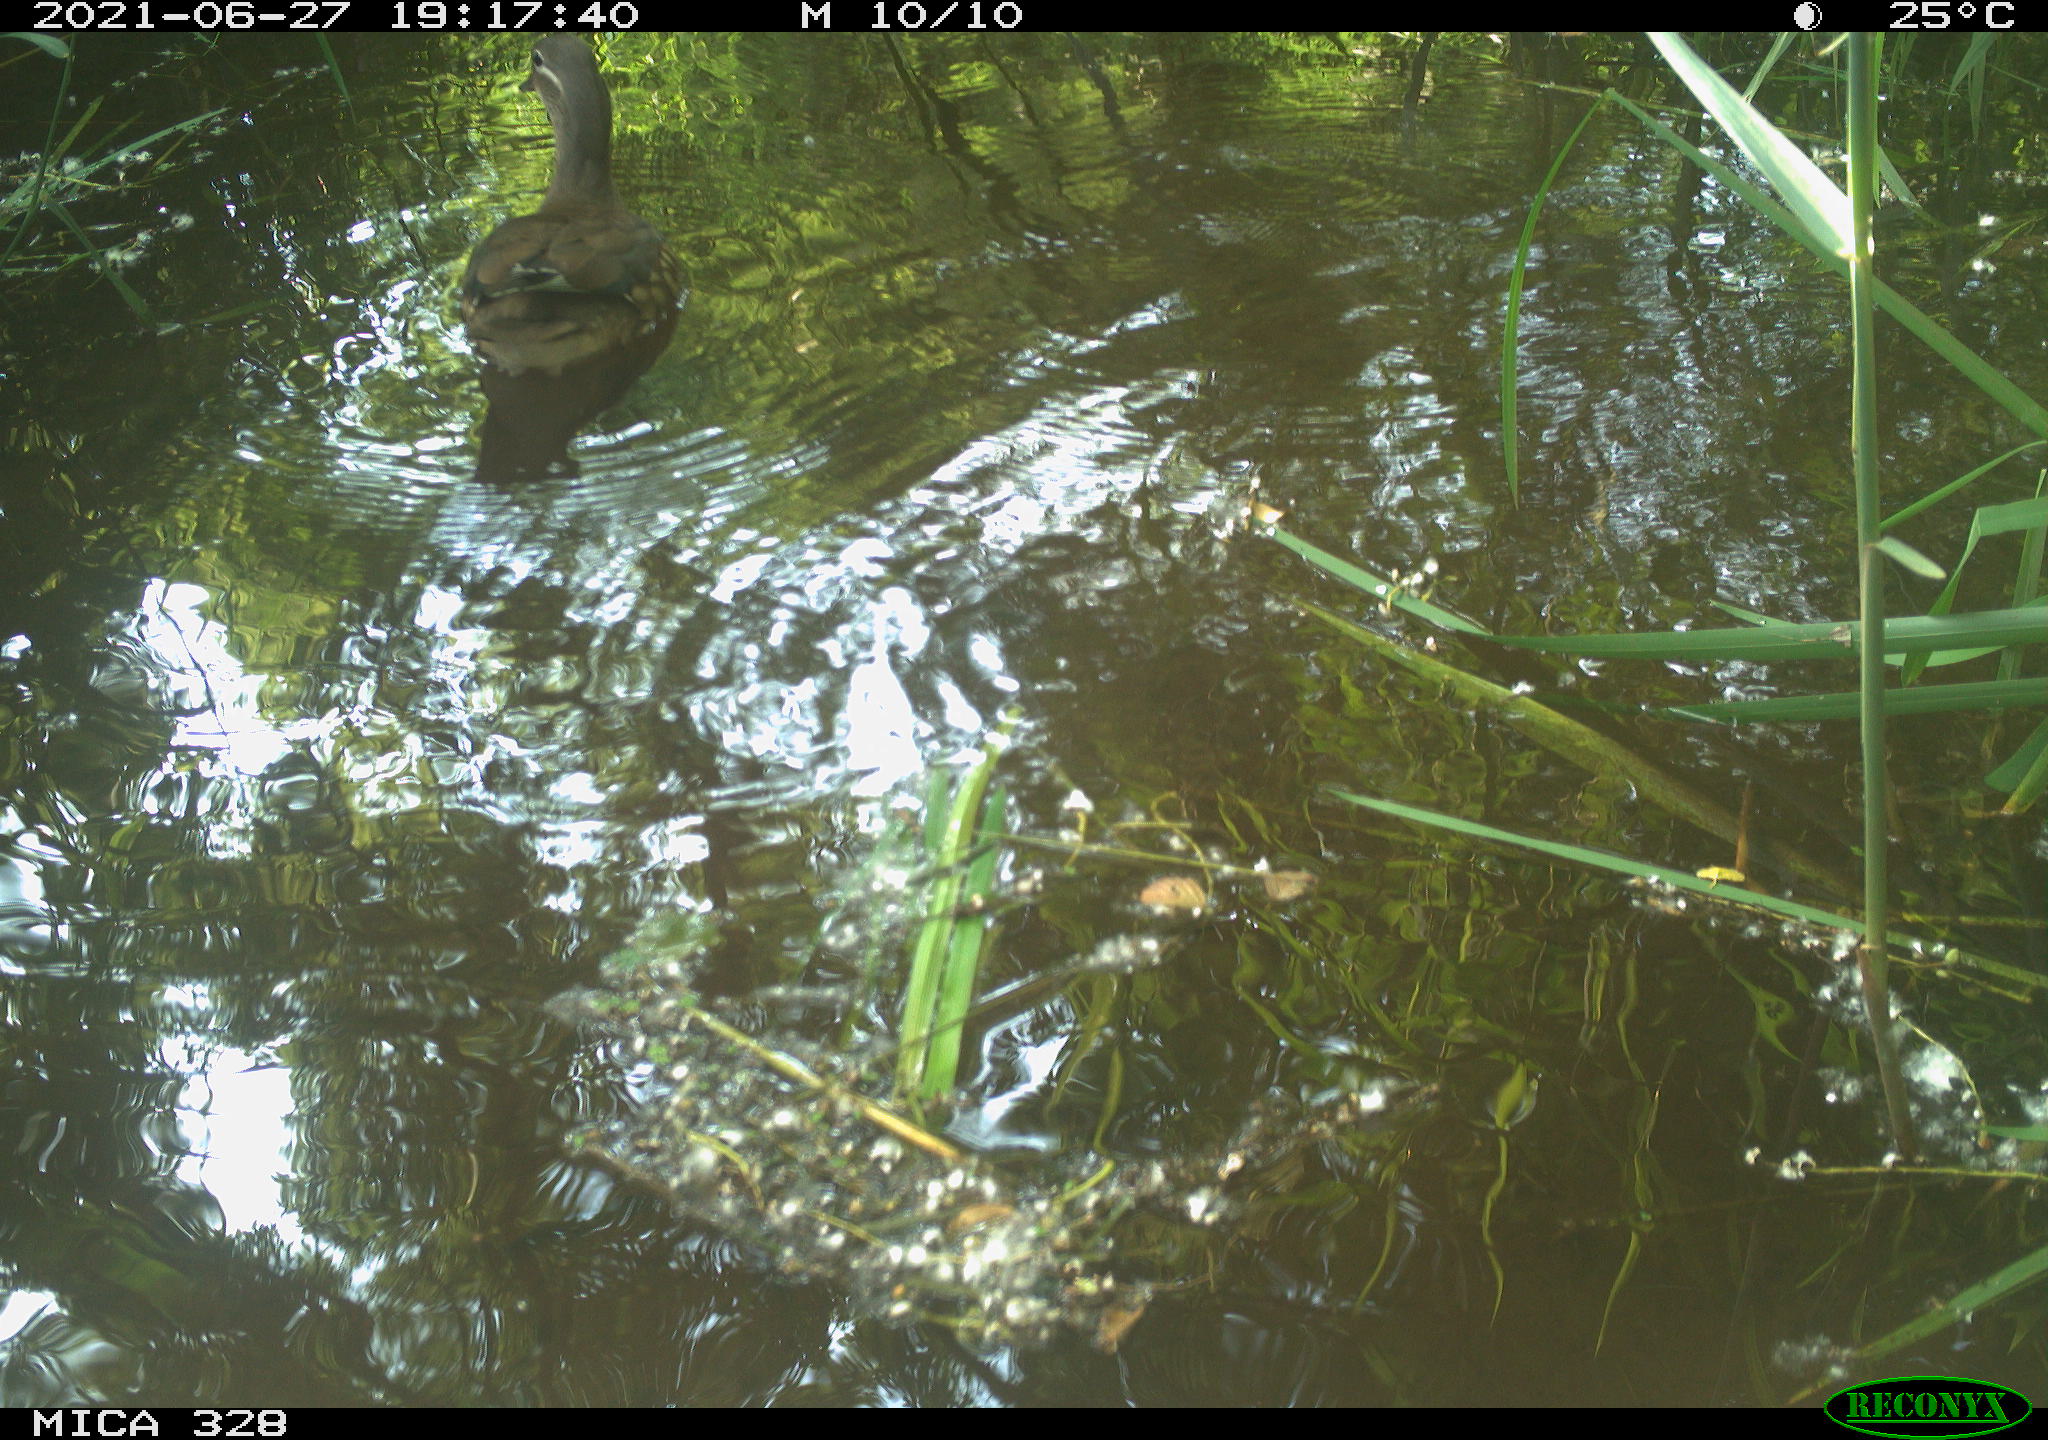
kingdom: Animalia
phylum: Chordata
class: Aves
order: Anseriformes
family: Anatidae
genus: Aix
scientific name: Aix galericulata
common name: Mandarin duck
